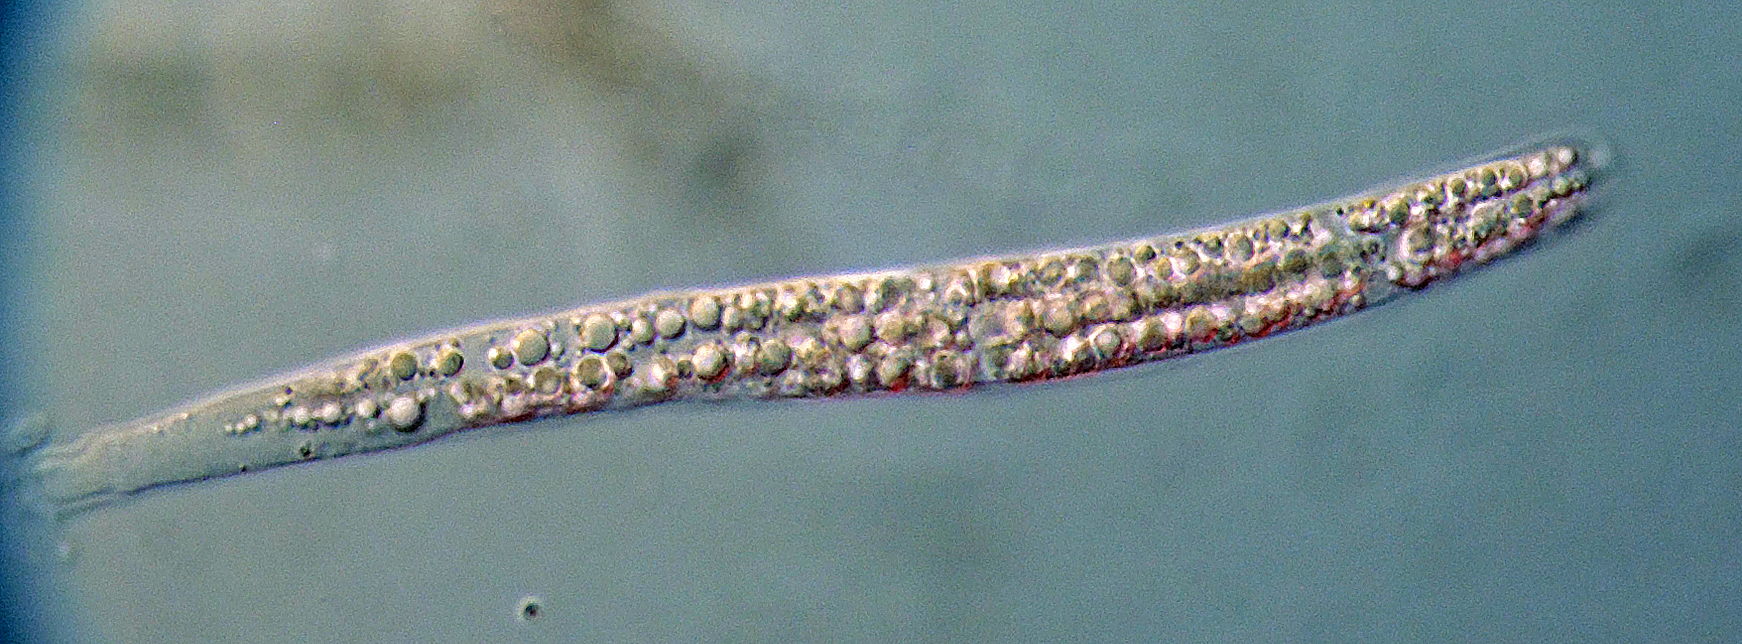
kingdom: Fungi
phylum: Ascomycota
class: Sordariomycetes
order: Magnaporthales
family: Magnaporthaceae
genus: Gaeumannomyces
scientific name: Gaeumannomyces
